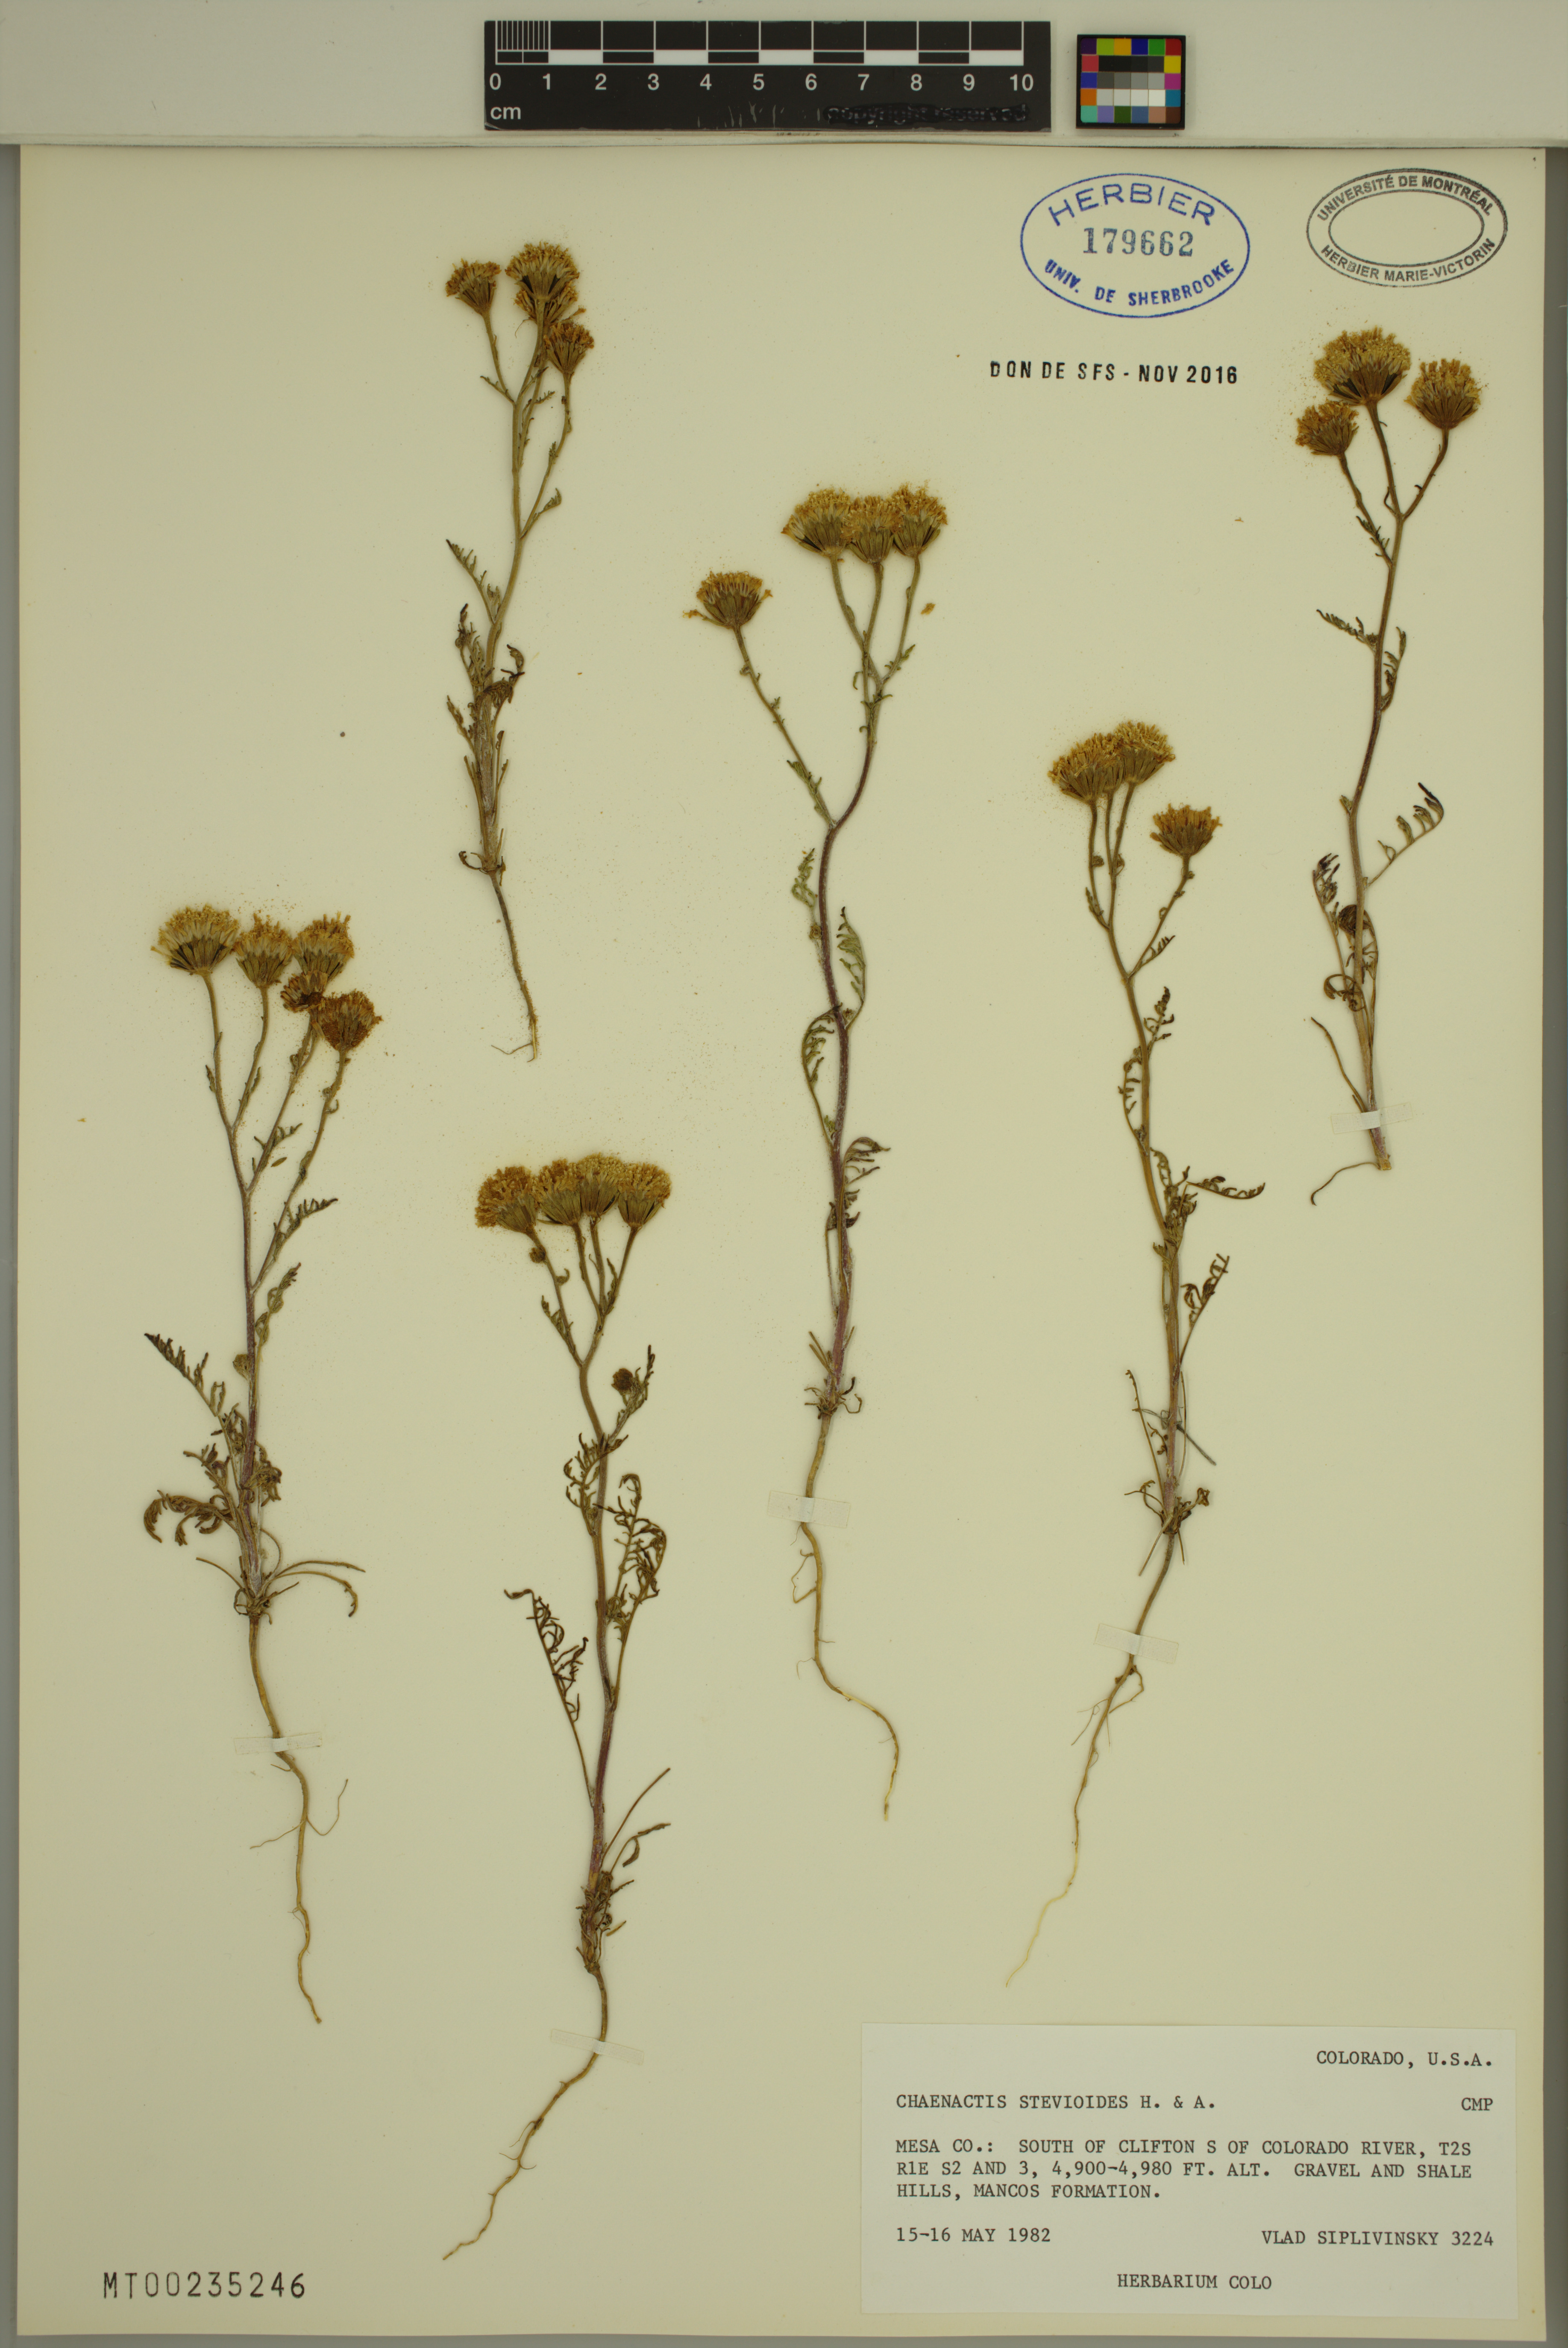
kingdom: Plantae
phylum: Tracheophyta
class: Magnoliopsida
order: Asterales
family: Asteraceae
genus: Chaenactis
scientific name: Chaenactis stevioides
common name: Desert pincushion
